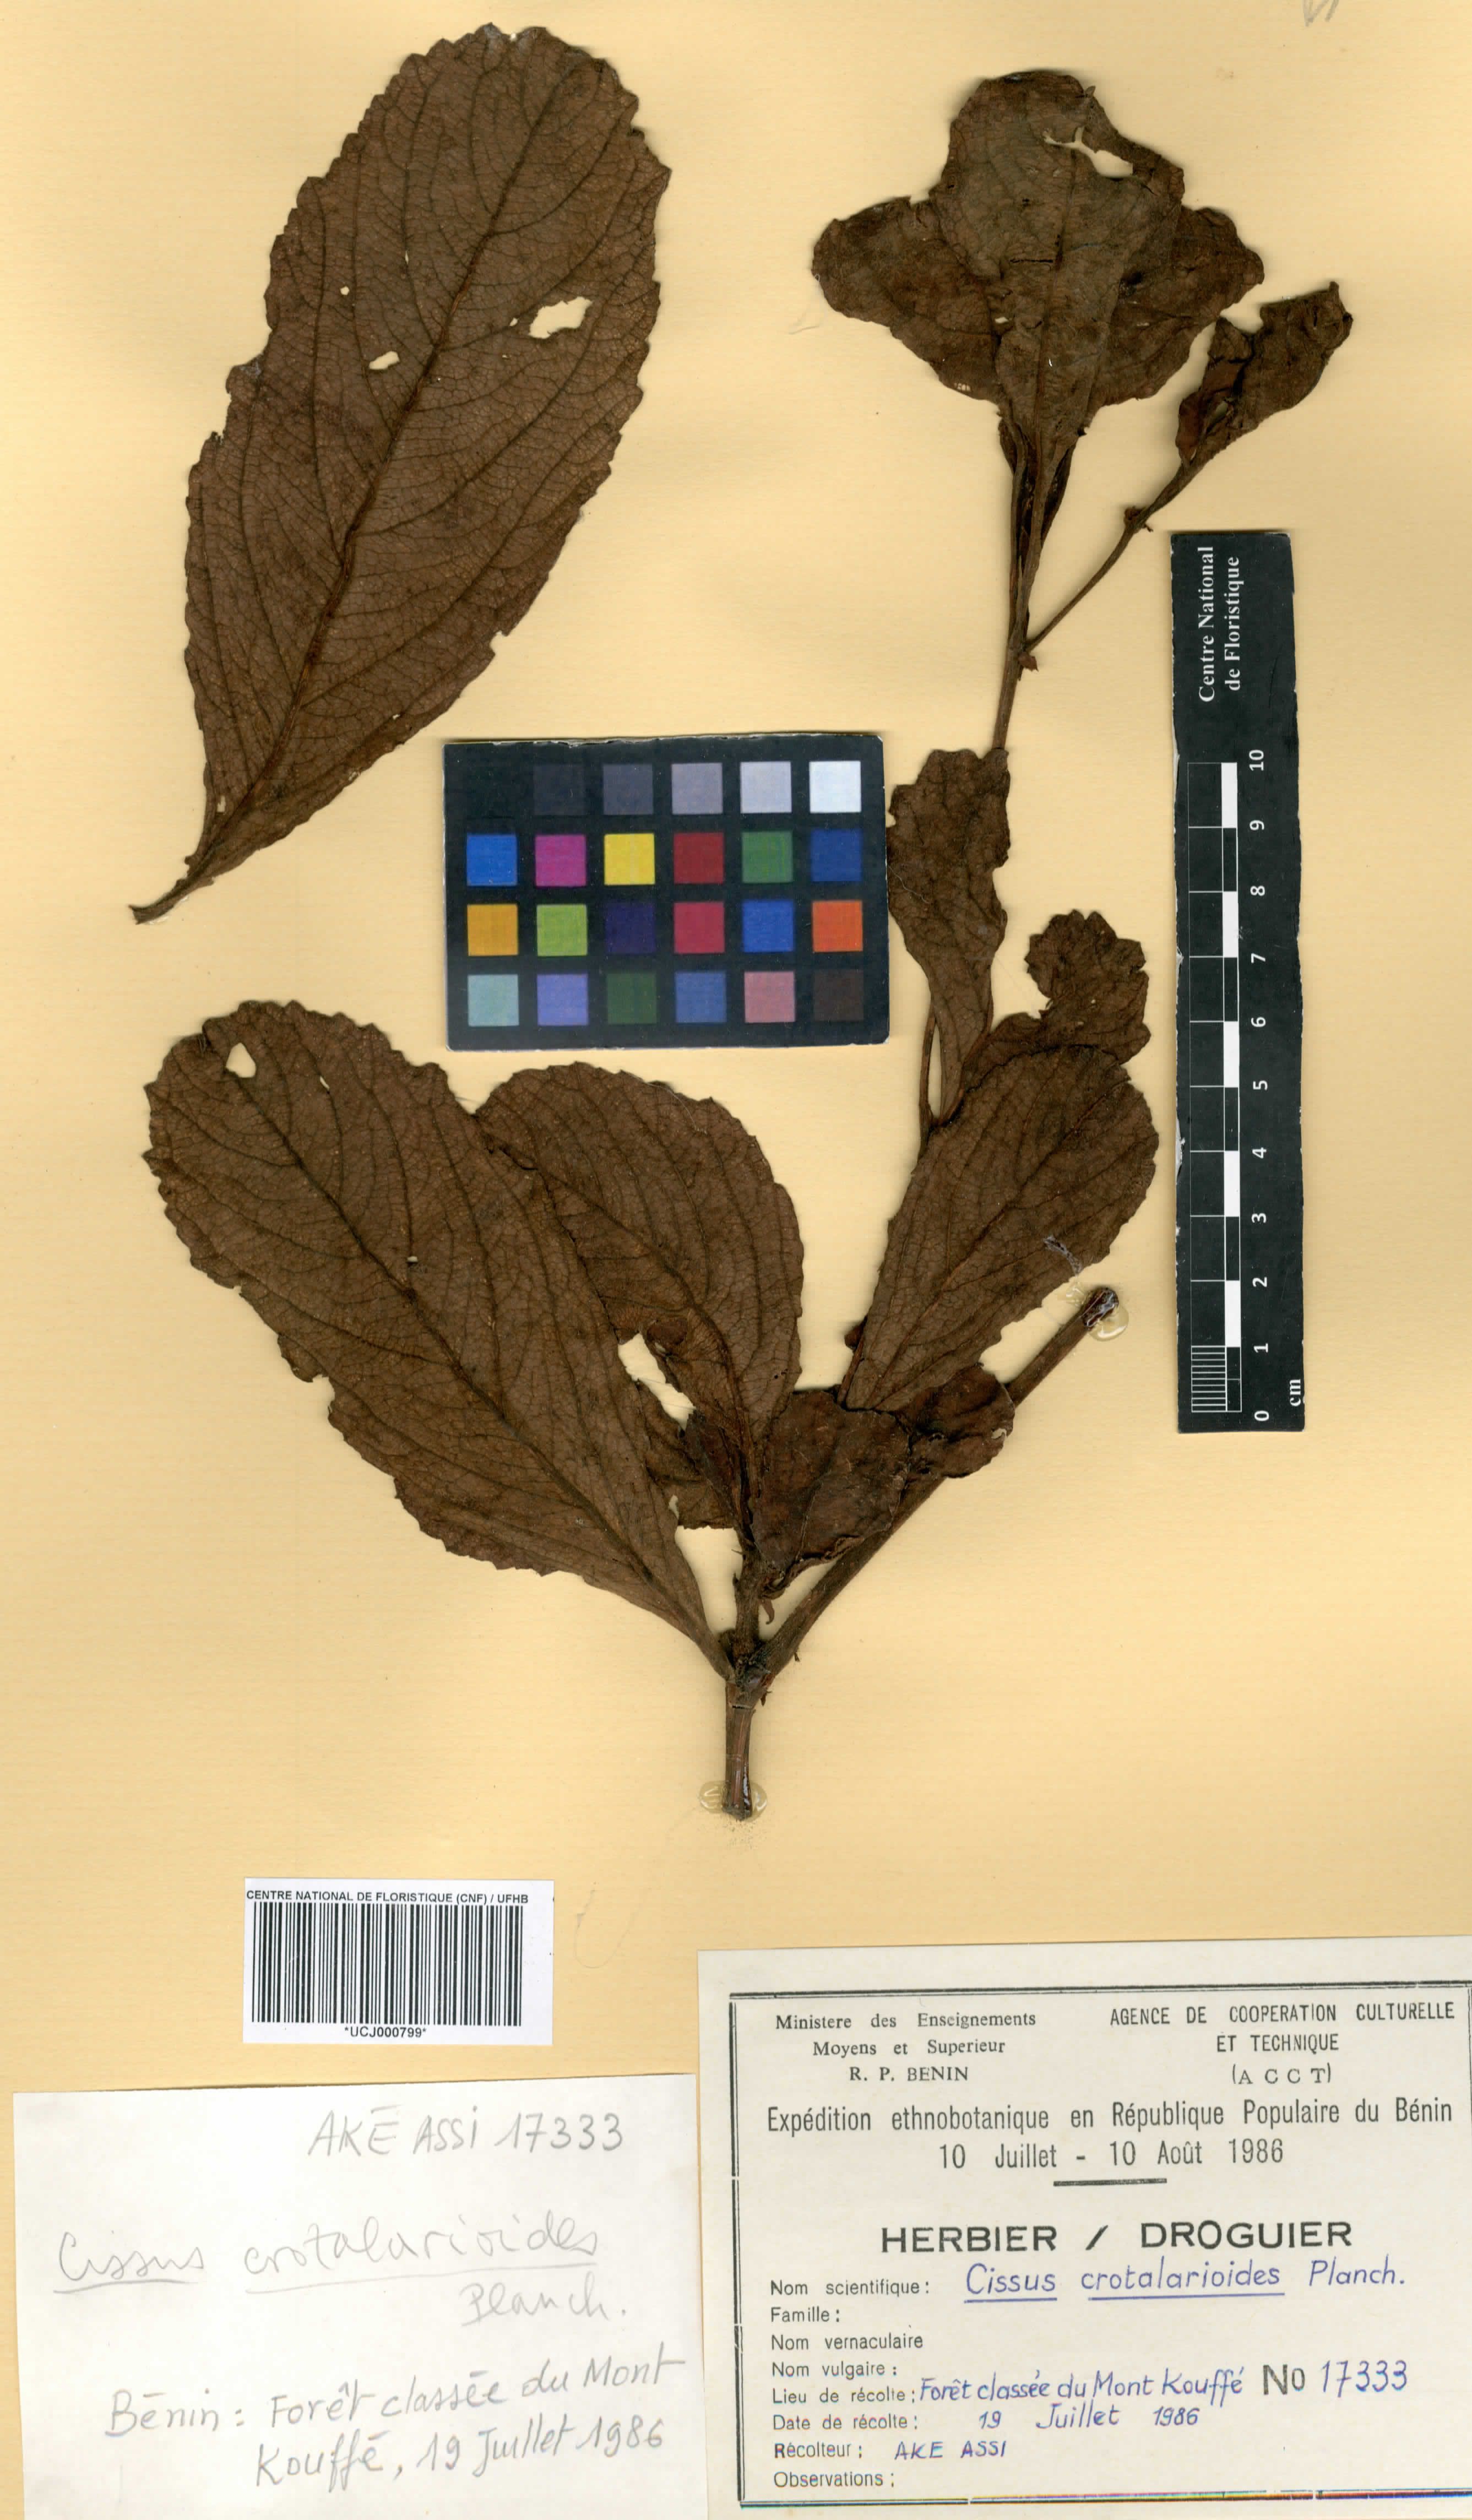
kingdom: Plantae
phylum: Tracheophyta
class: Magnoliopsida
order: Vitales
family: Vitaceae
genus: Cyphostemma
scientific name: Cyphostemma crotalarioides
